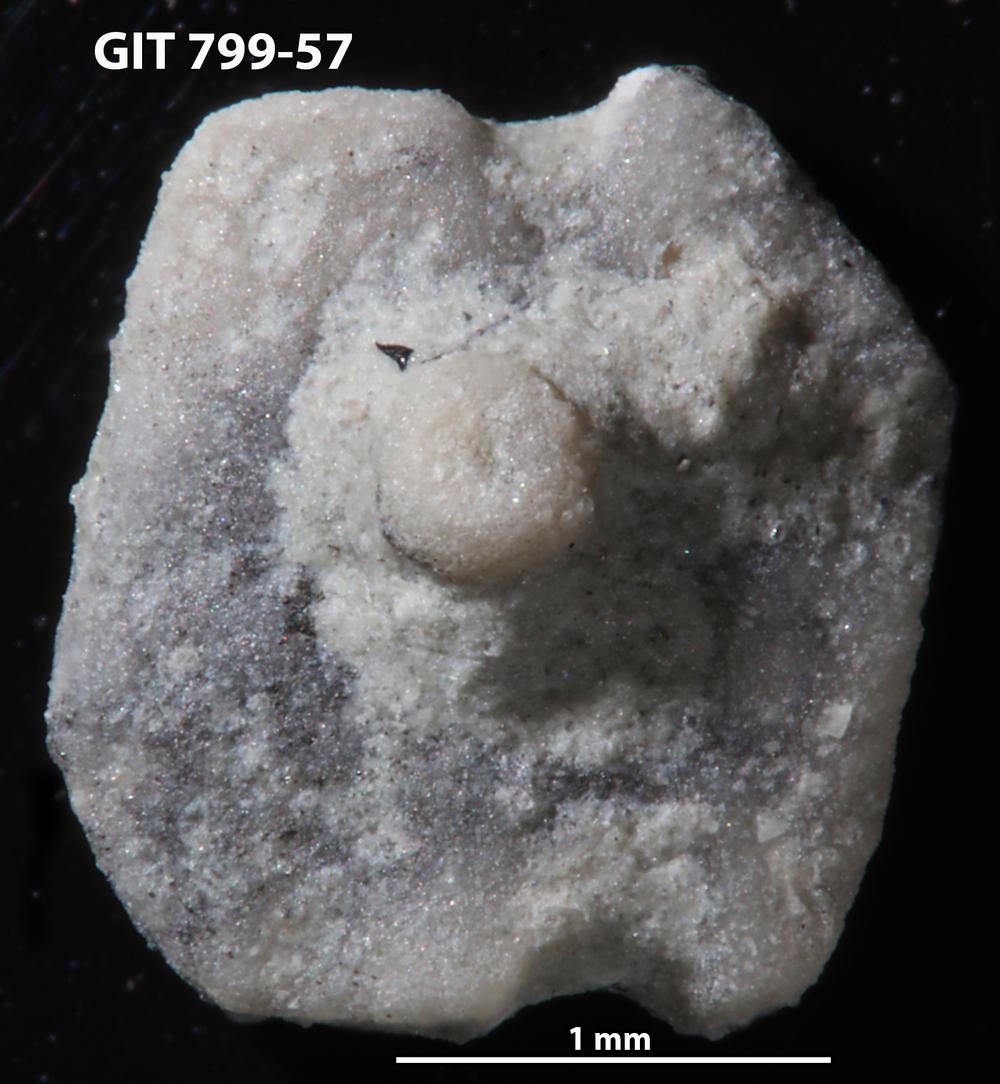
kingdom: Animalia
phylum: Echinodermata
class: Echinoidea
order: Bothriocidaroida
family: Bothriocidaridae
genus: Neobothriocidaris
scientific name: Neobothriocidaris
